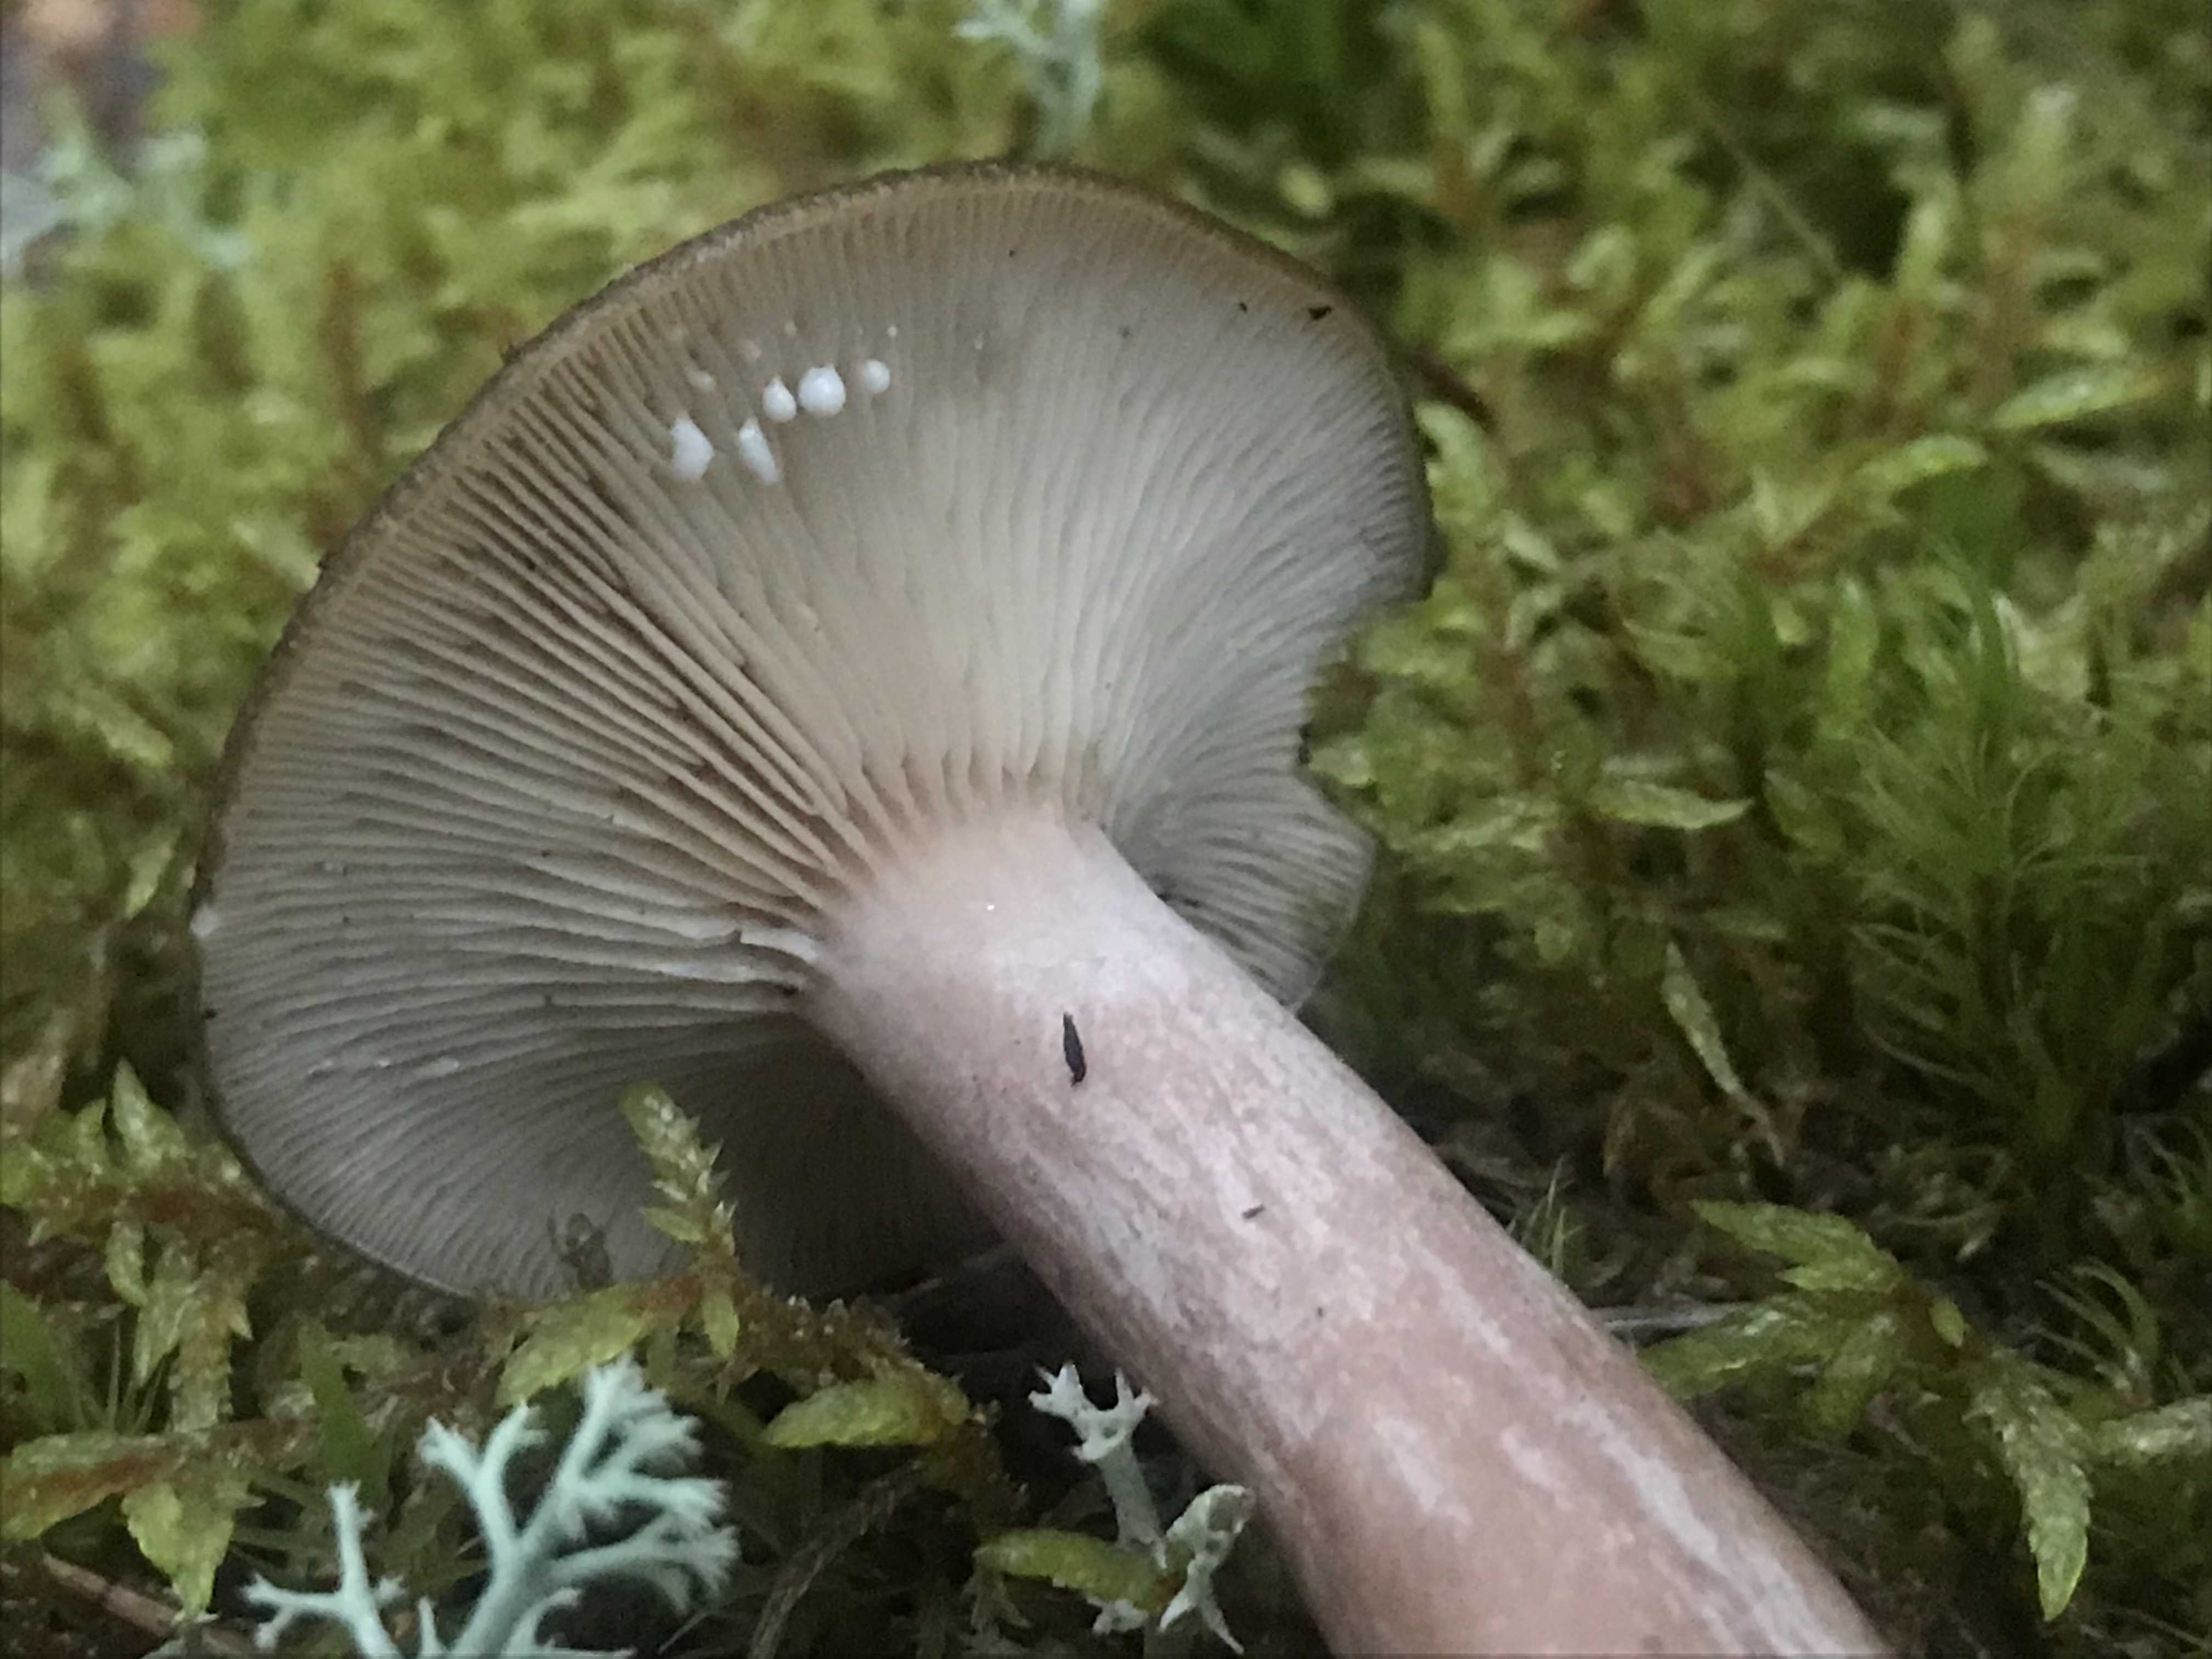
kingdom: Fungi
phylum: Basidiomycota
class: Agaricomycetes
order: Russulales
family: Russulaceae
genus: Lactarius
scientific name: Lactarius mammosus
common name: kokosbrun mælkehat
